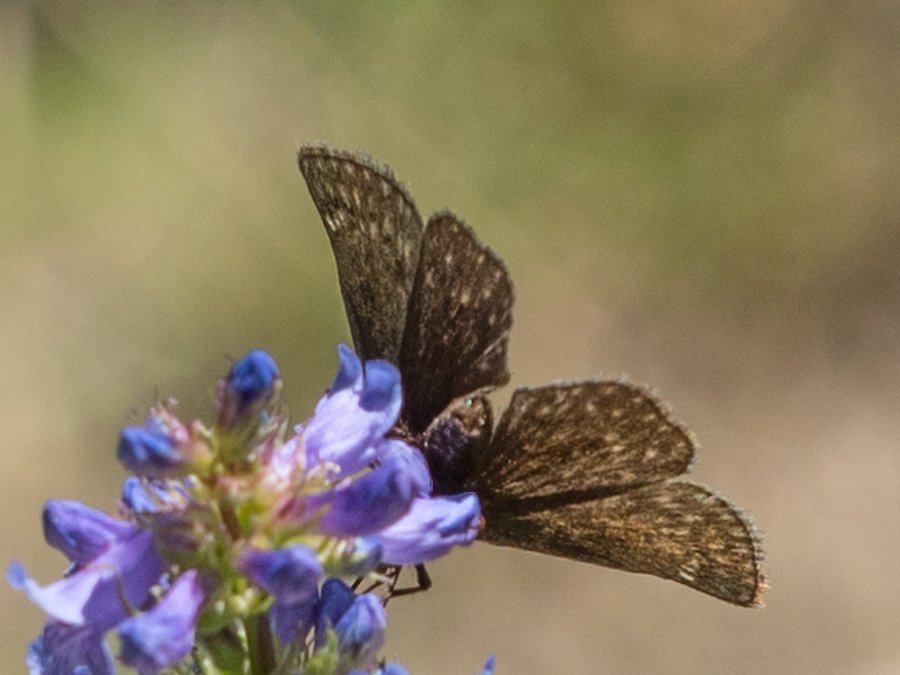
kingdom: Animalia
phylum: Arthropoda
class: Insecta
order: Lepidoptera
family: Hesperiidae
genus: Gesta
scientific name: Gesta
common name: Persius Duskywing
